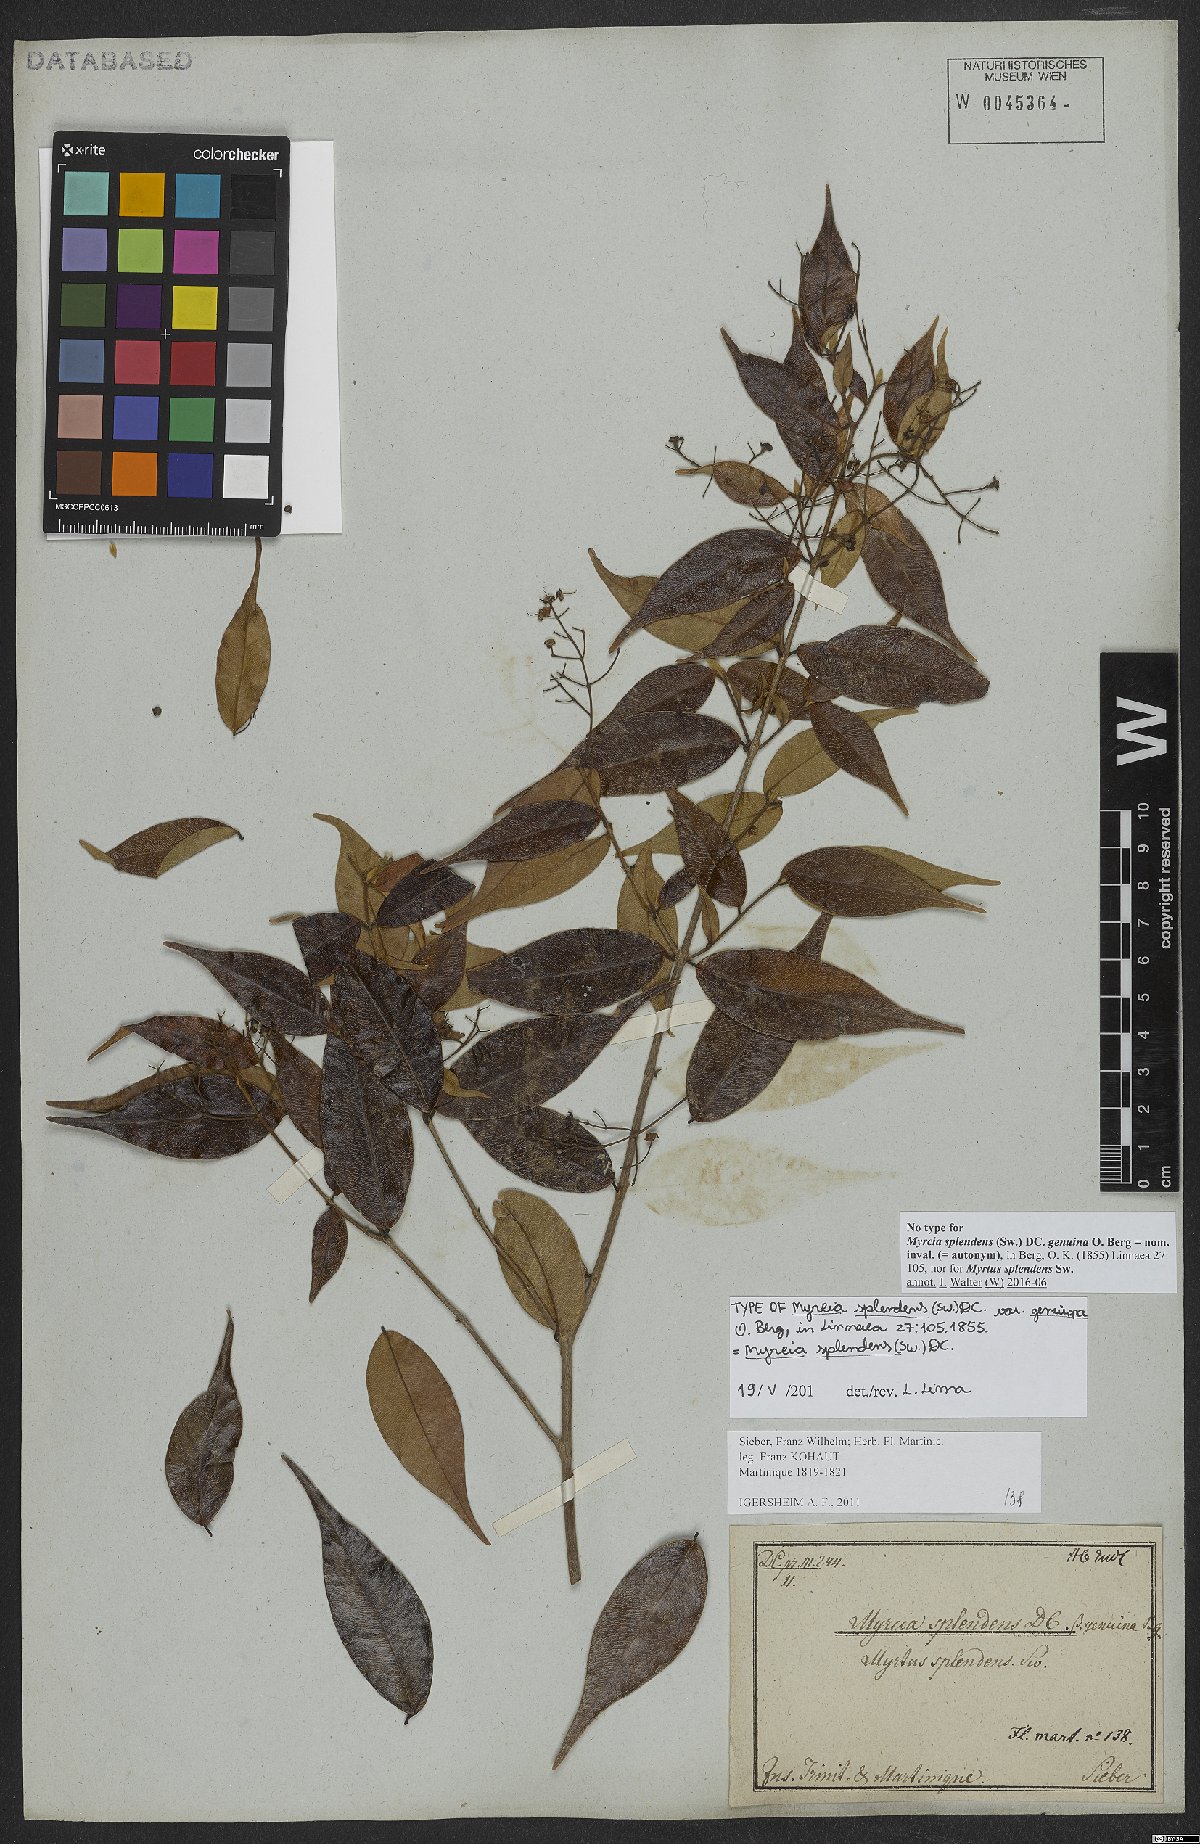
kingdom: Plantae
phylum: Tracheophyta
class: Magnoliopsida
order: Myrtales
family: Myrtaceae
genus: Myrcia
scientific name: Myrcia splendens
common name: Surinam cherry
